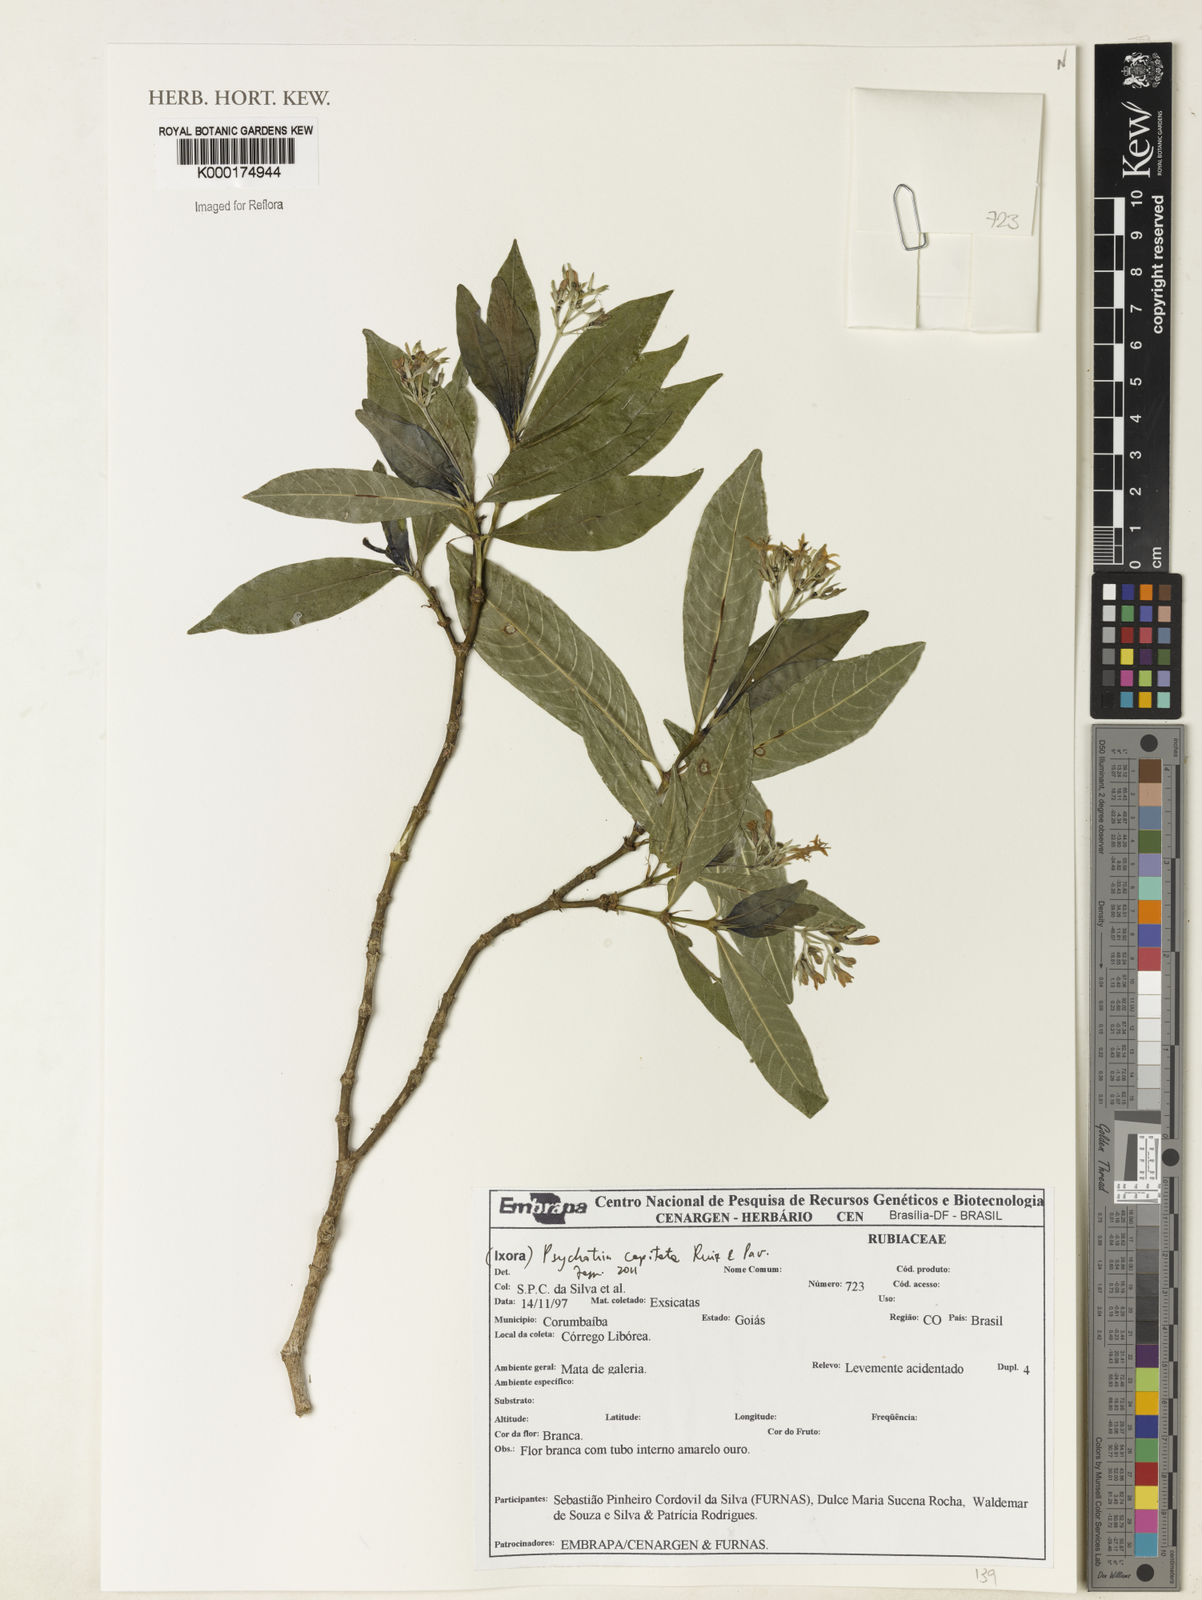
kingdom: Plantae
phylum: Tracheophyta
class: Magnoliopsida
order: Gentianales
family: Rubiaceae
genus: Palicourea
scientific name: Palicourea violacea
